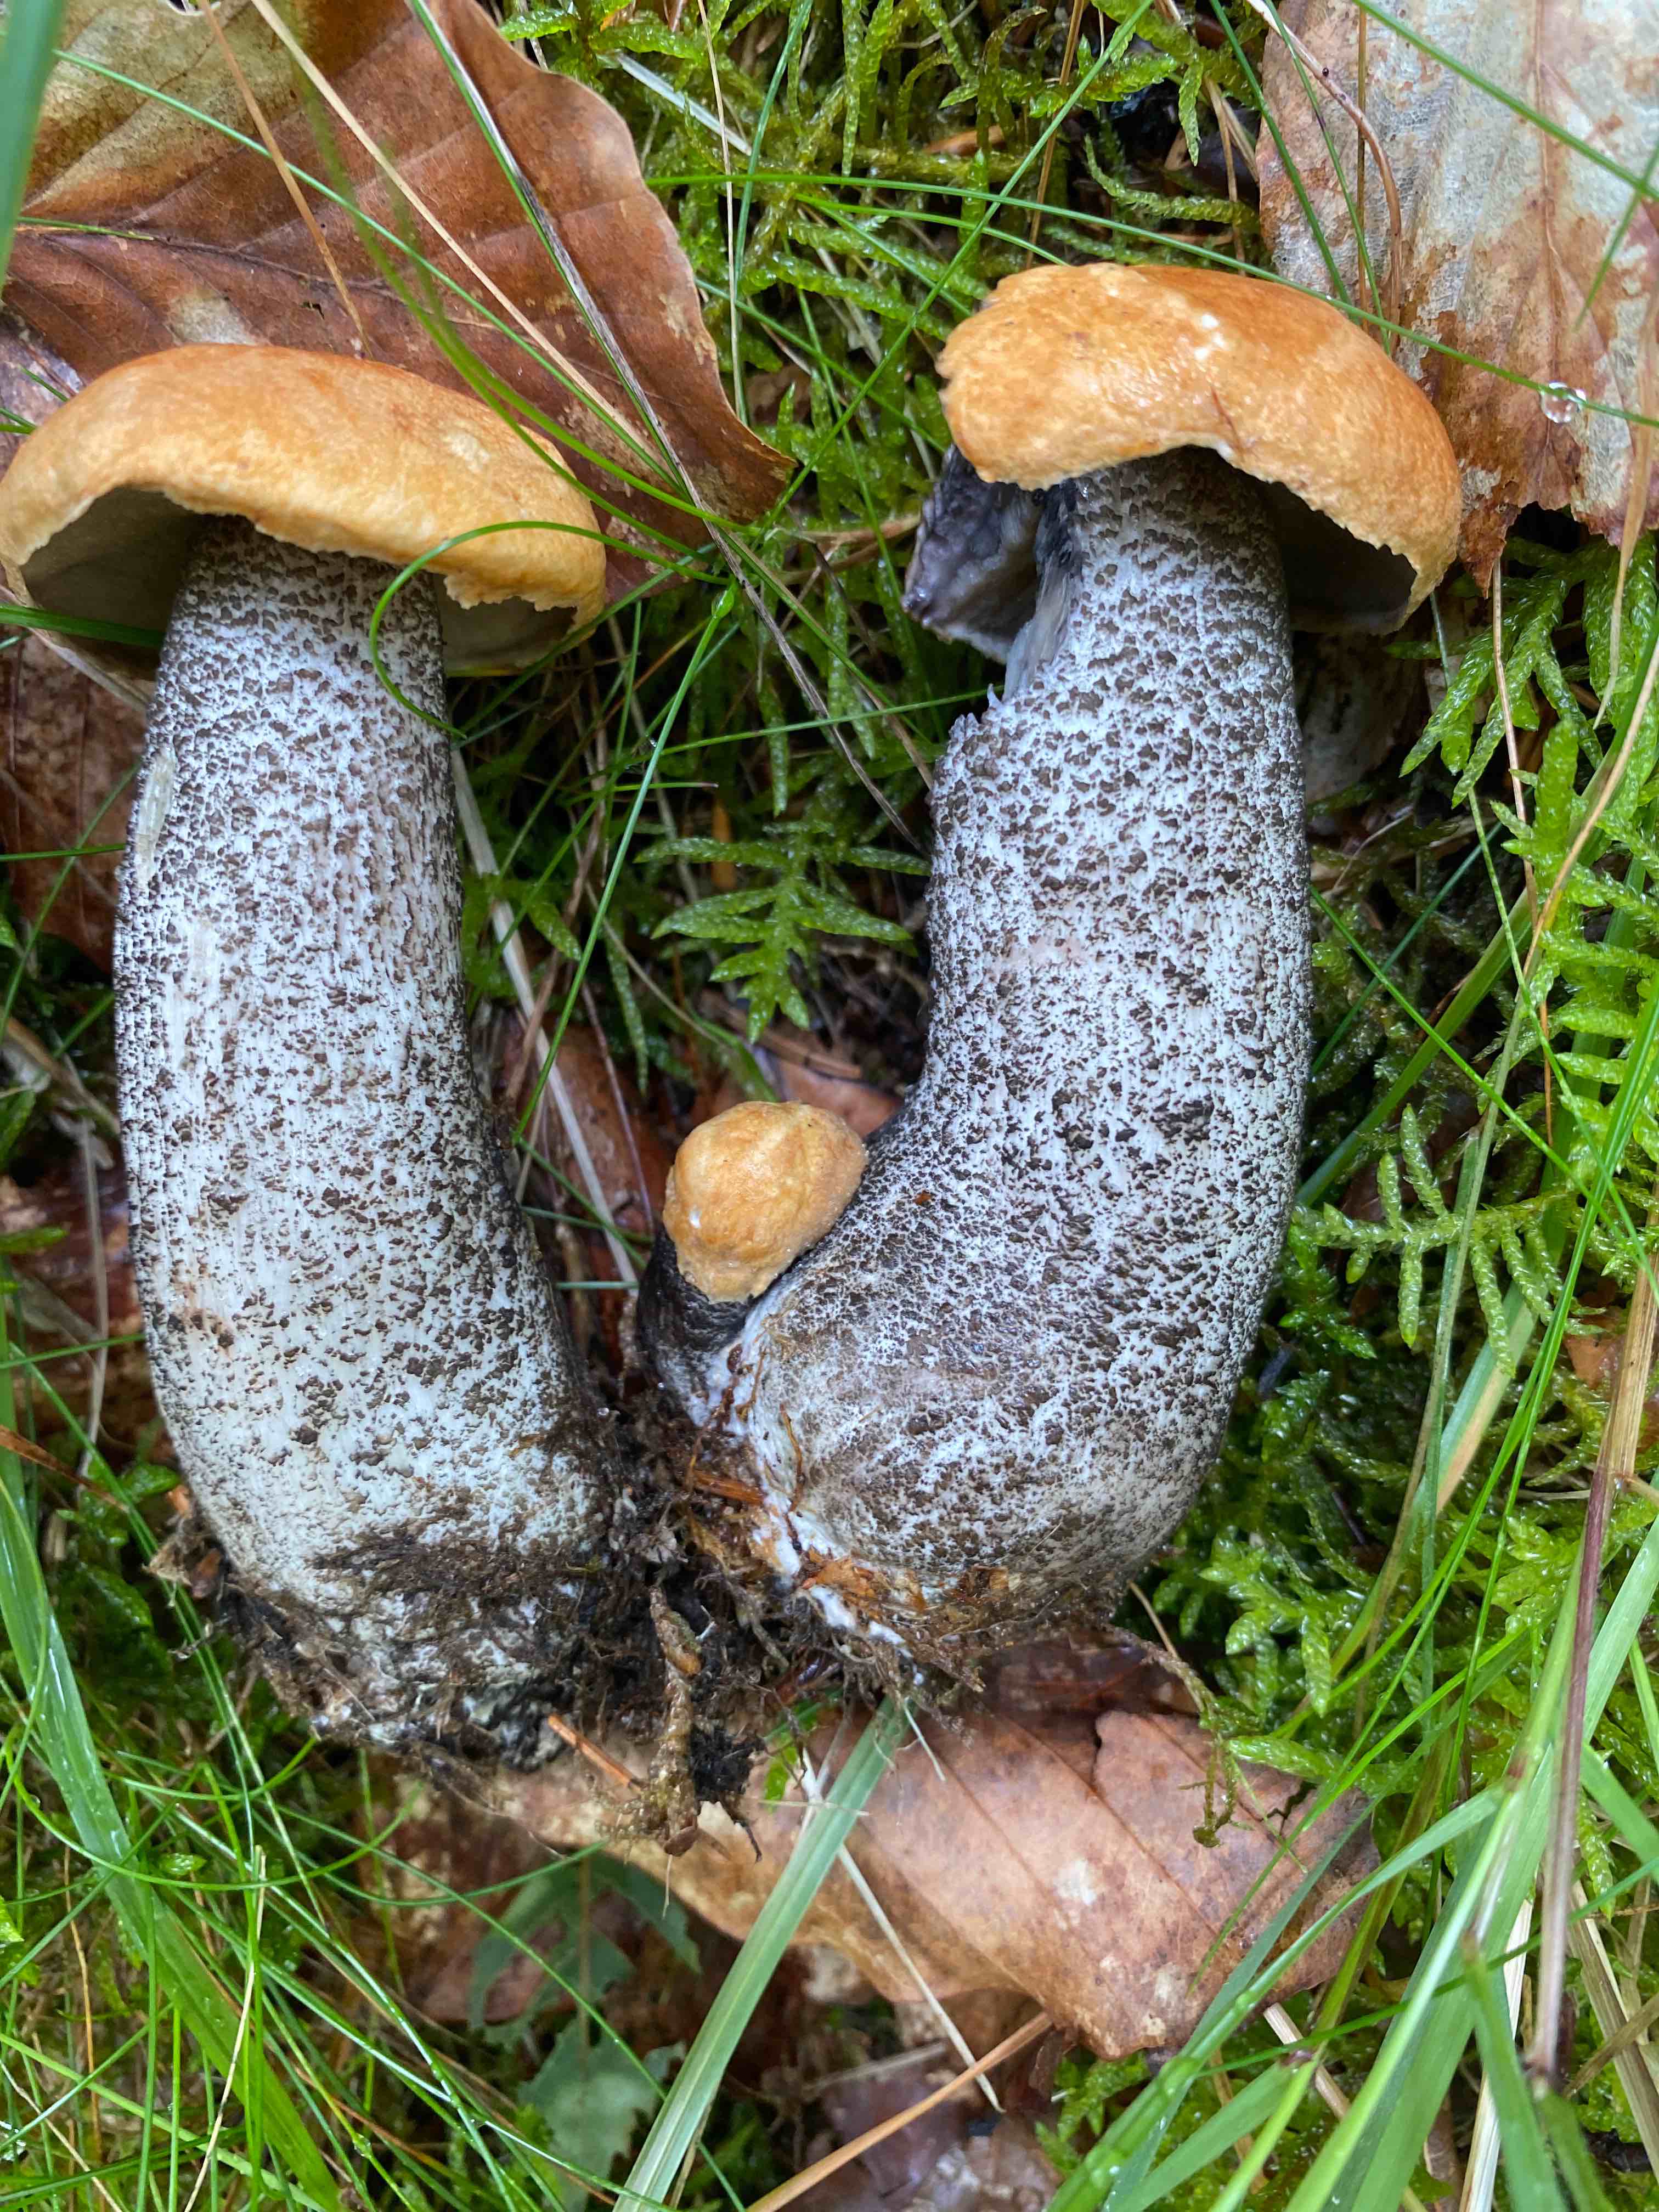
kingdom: Fungi
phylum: Basidiomycota
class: Agaricomycetes
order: Boletales
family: Boletaceae
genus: Leccinum
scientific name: Leccinum versipelle
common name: orange skælrørhat
